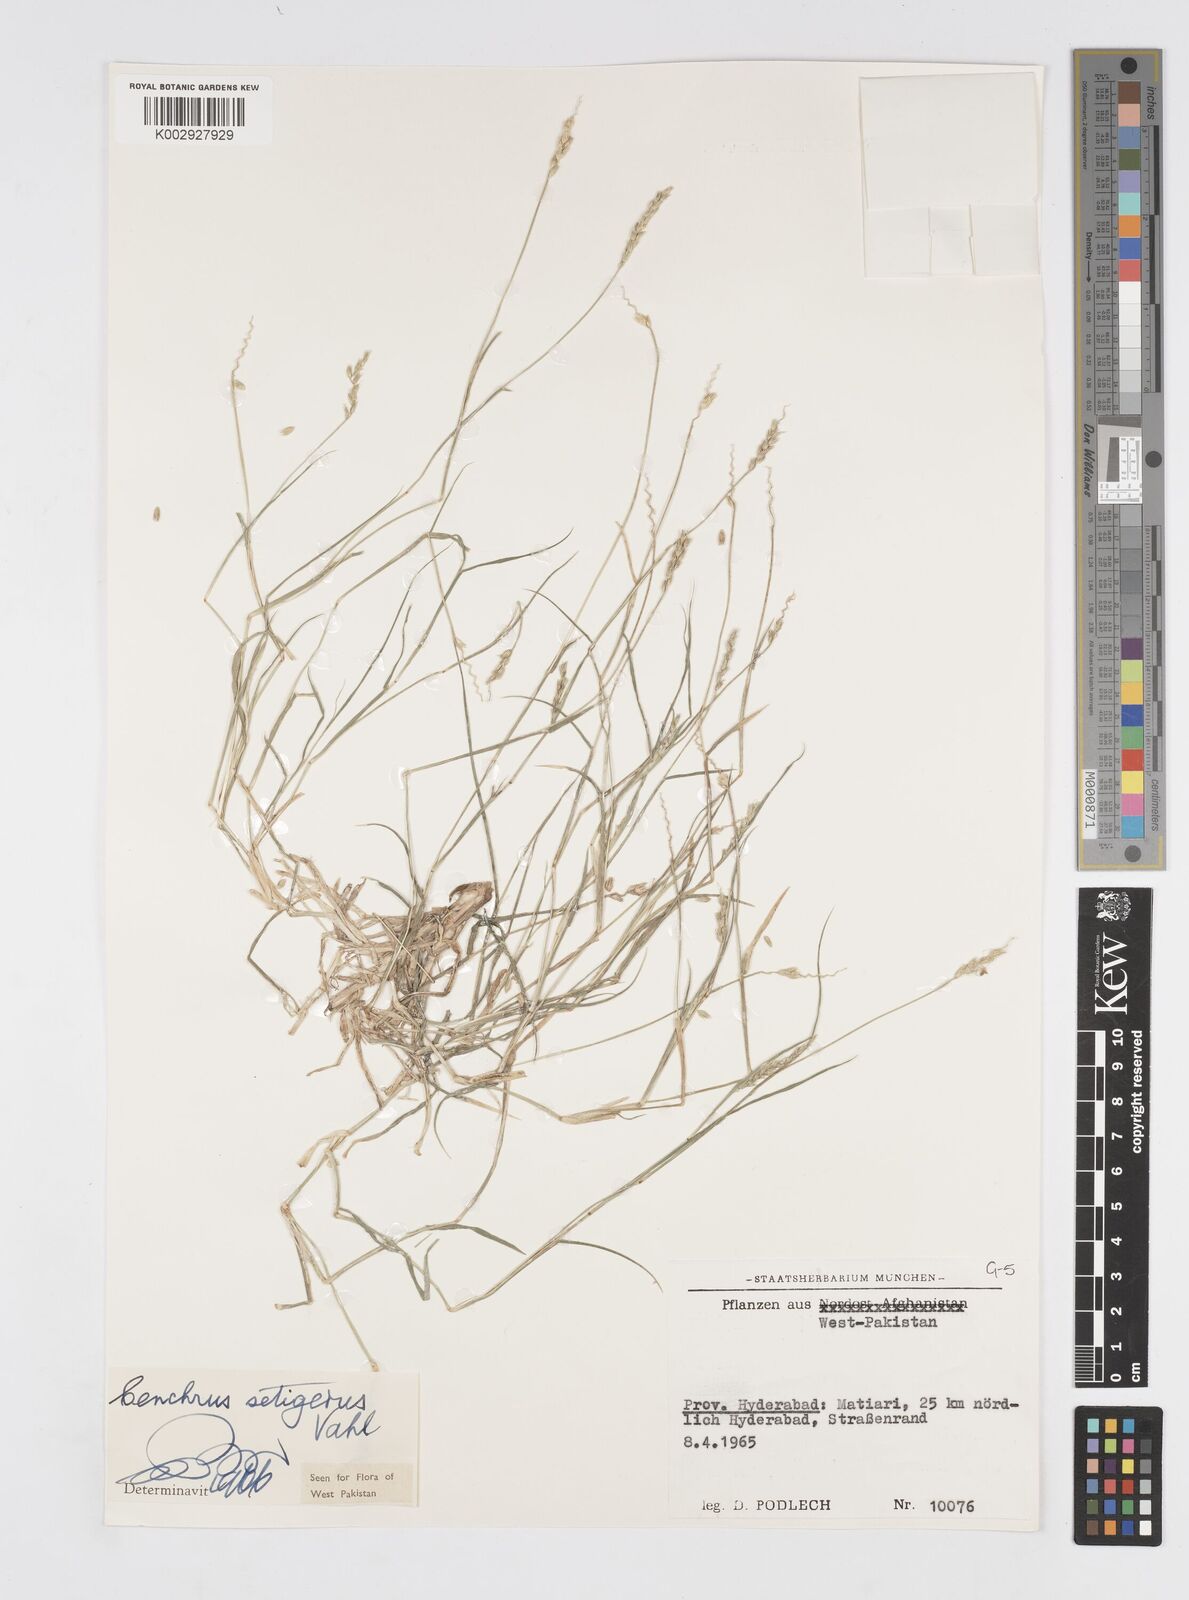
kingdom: Plantae
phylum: Tracheophyta
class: Liliopsida
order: Poales
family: Poaceae
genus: Cenchrus
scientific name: Cenchrus setigerus
